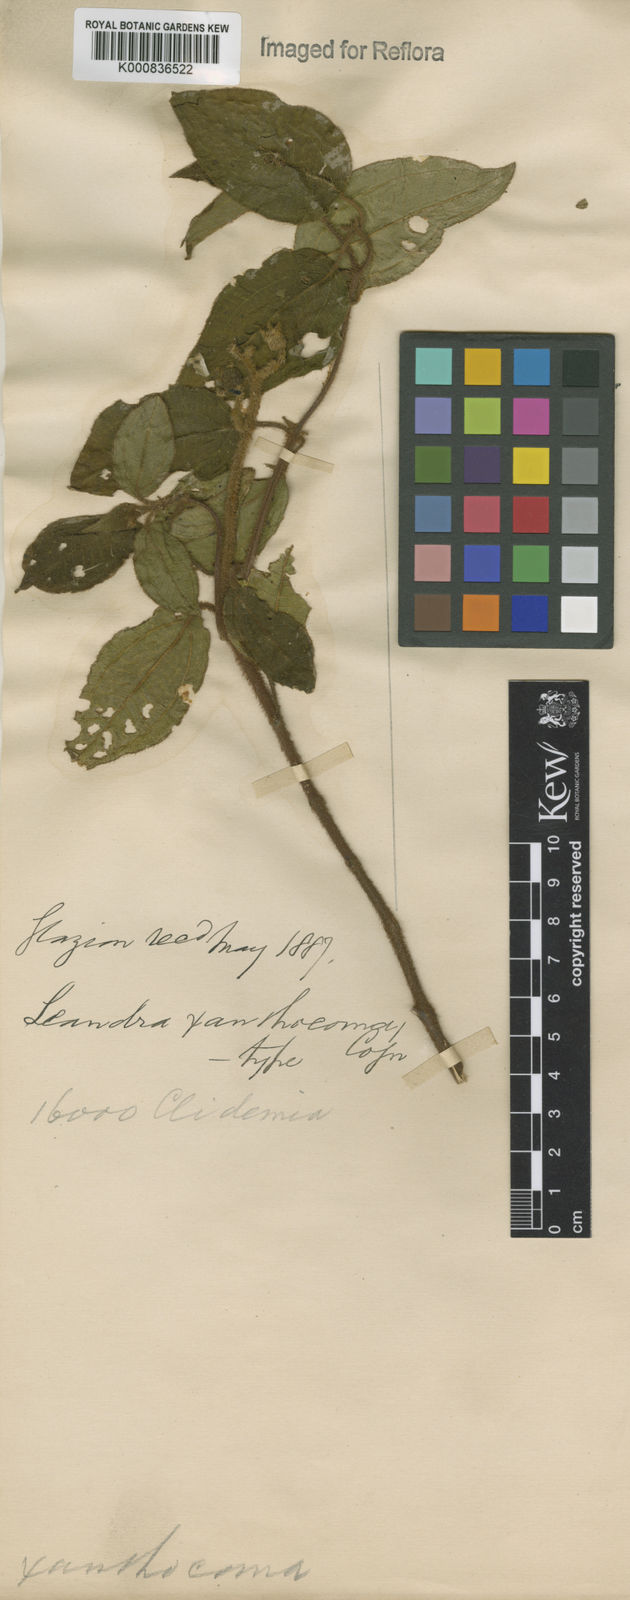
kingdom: Plantae
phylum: Tracheophyta
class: Magnoliopsida
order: Myrtales
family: Melastomataceae
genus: Miconia
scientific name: Miconia xanthocoma
